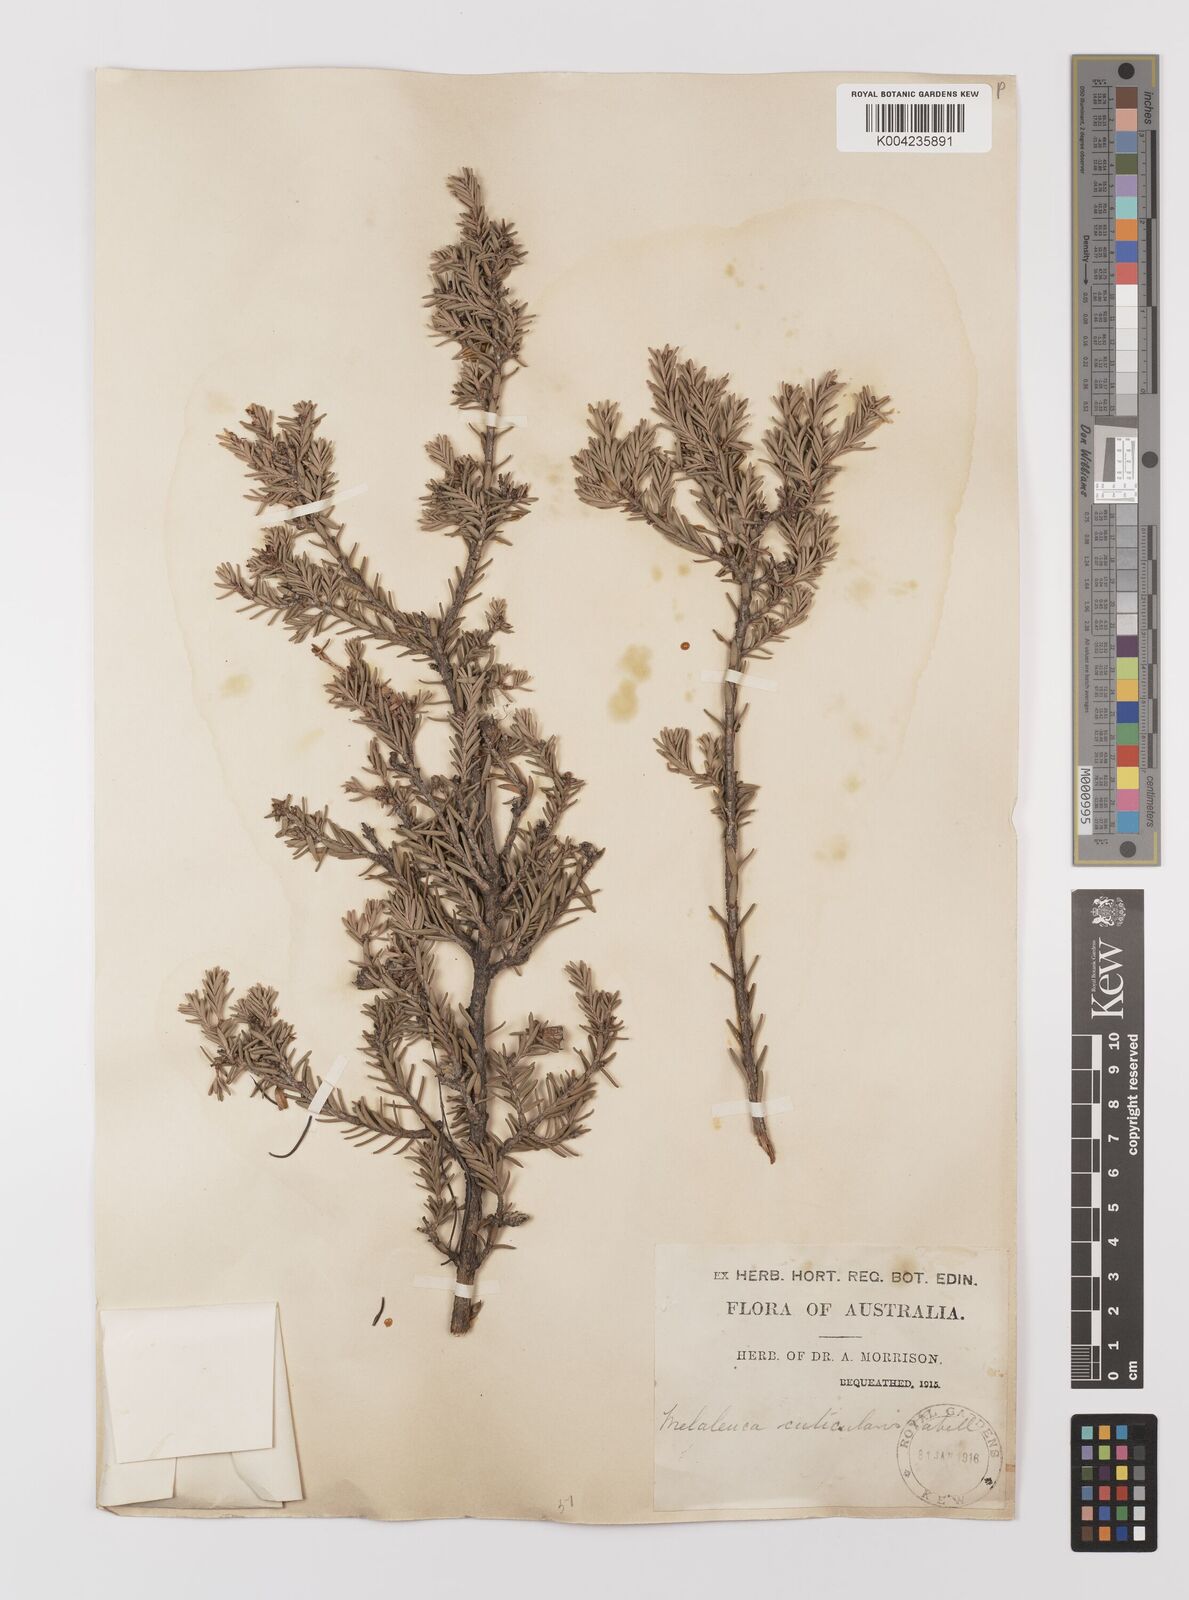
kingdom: Plantae
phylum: Tracheophyta
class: Magnoliopsida
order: Myrtales
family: Myrtaceae
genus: Melaleuca
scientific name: Melaleuca cuticularis
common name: Saltwater paperbark
